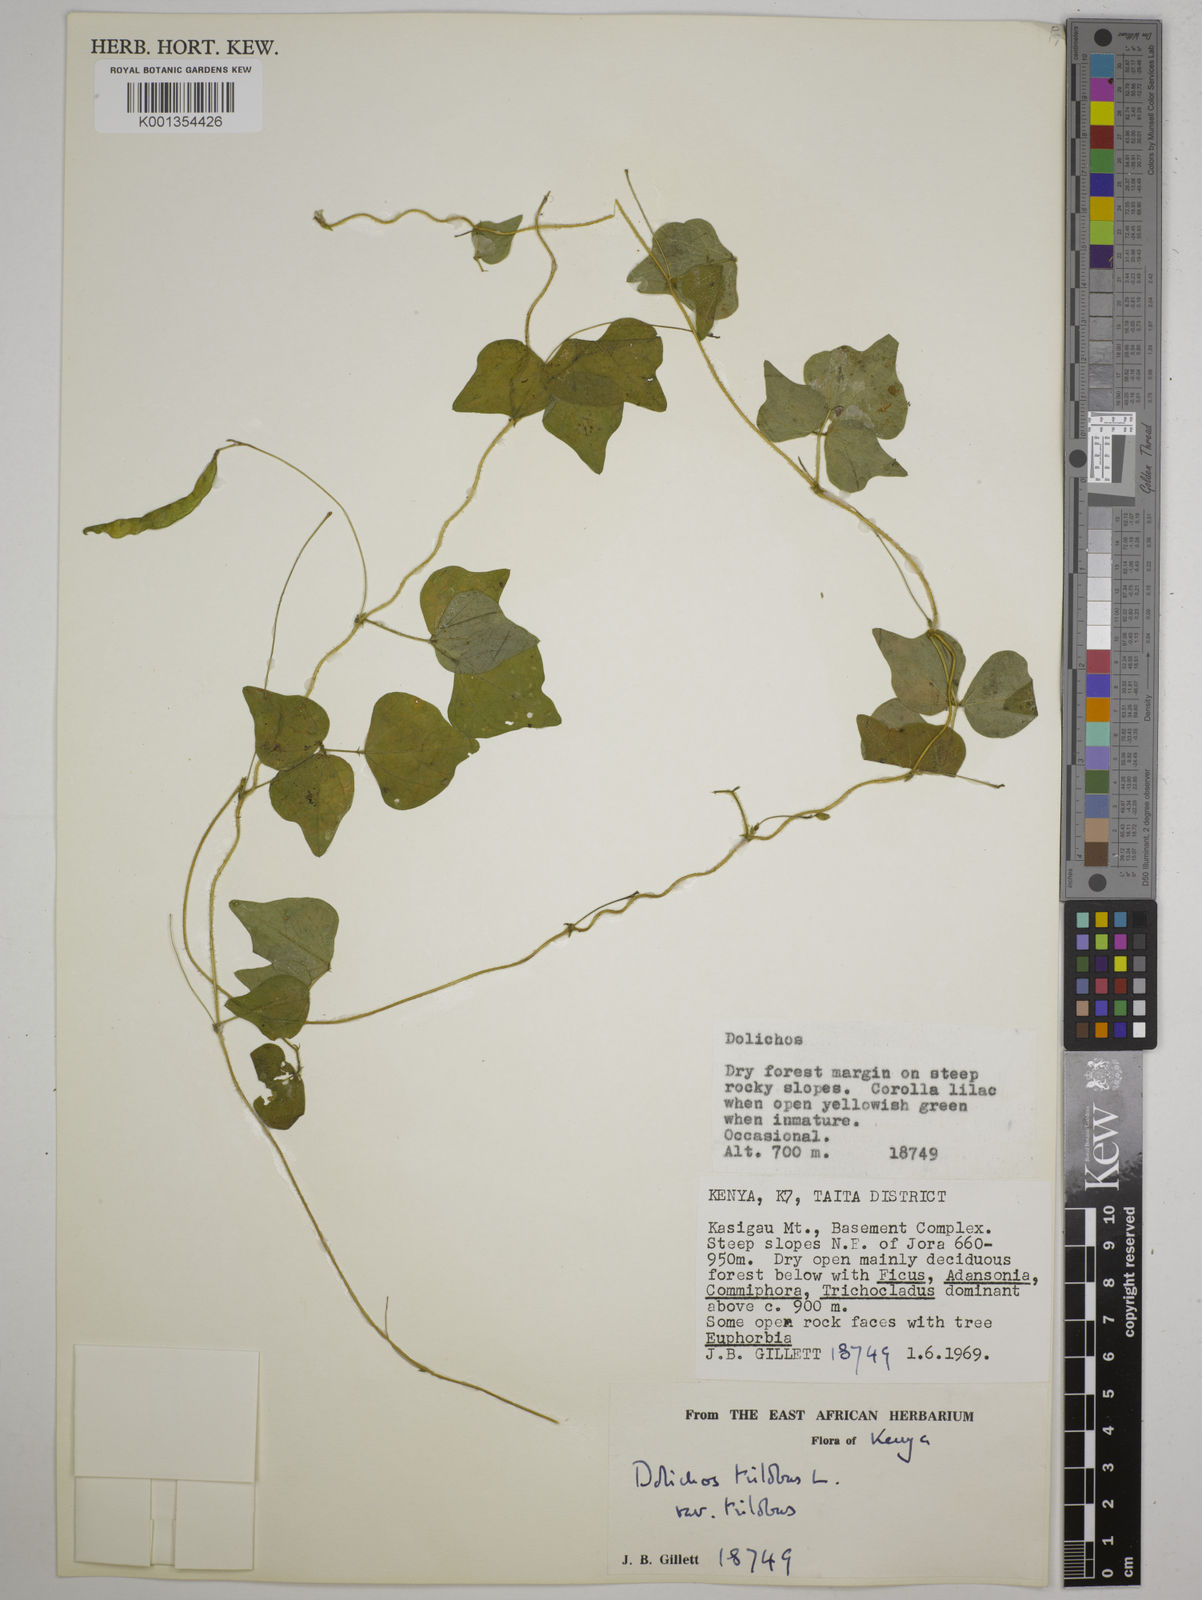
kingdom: Plantae
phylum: Tracheophyta
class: Magnoliopsida
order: Fabales
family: Fabaceae
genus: Dolichos
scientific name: Dolichos
